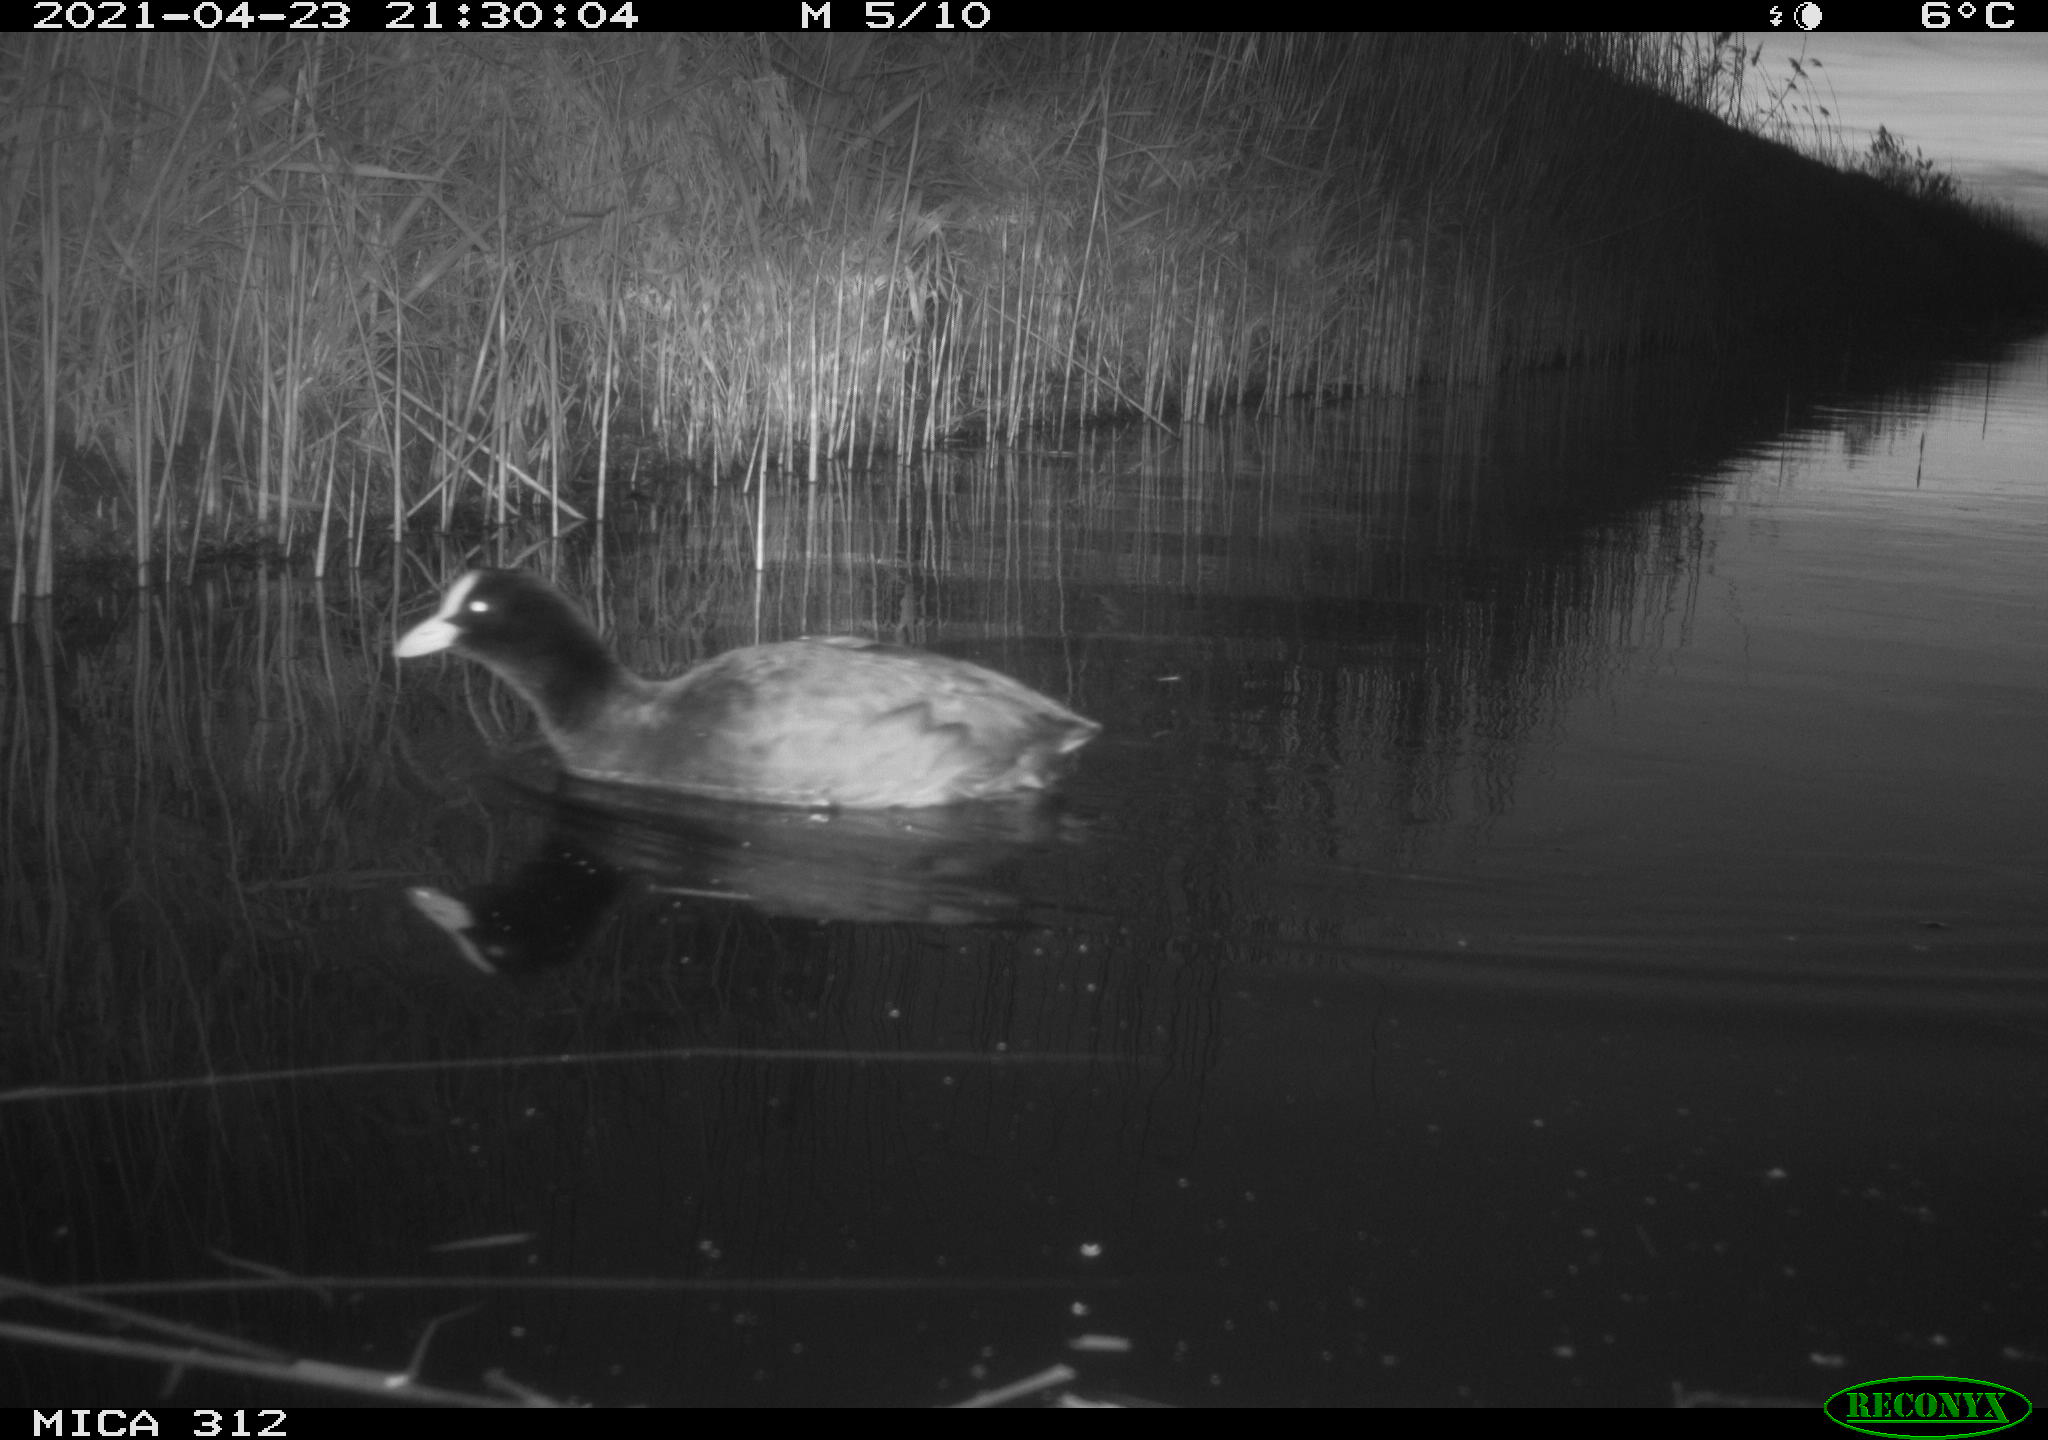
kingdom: Animalia
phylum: Chordata
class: Aves
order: Gruiformes
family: Rallidae
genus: Fulica
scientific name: Fulica atra
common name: Eurasian coot
